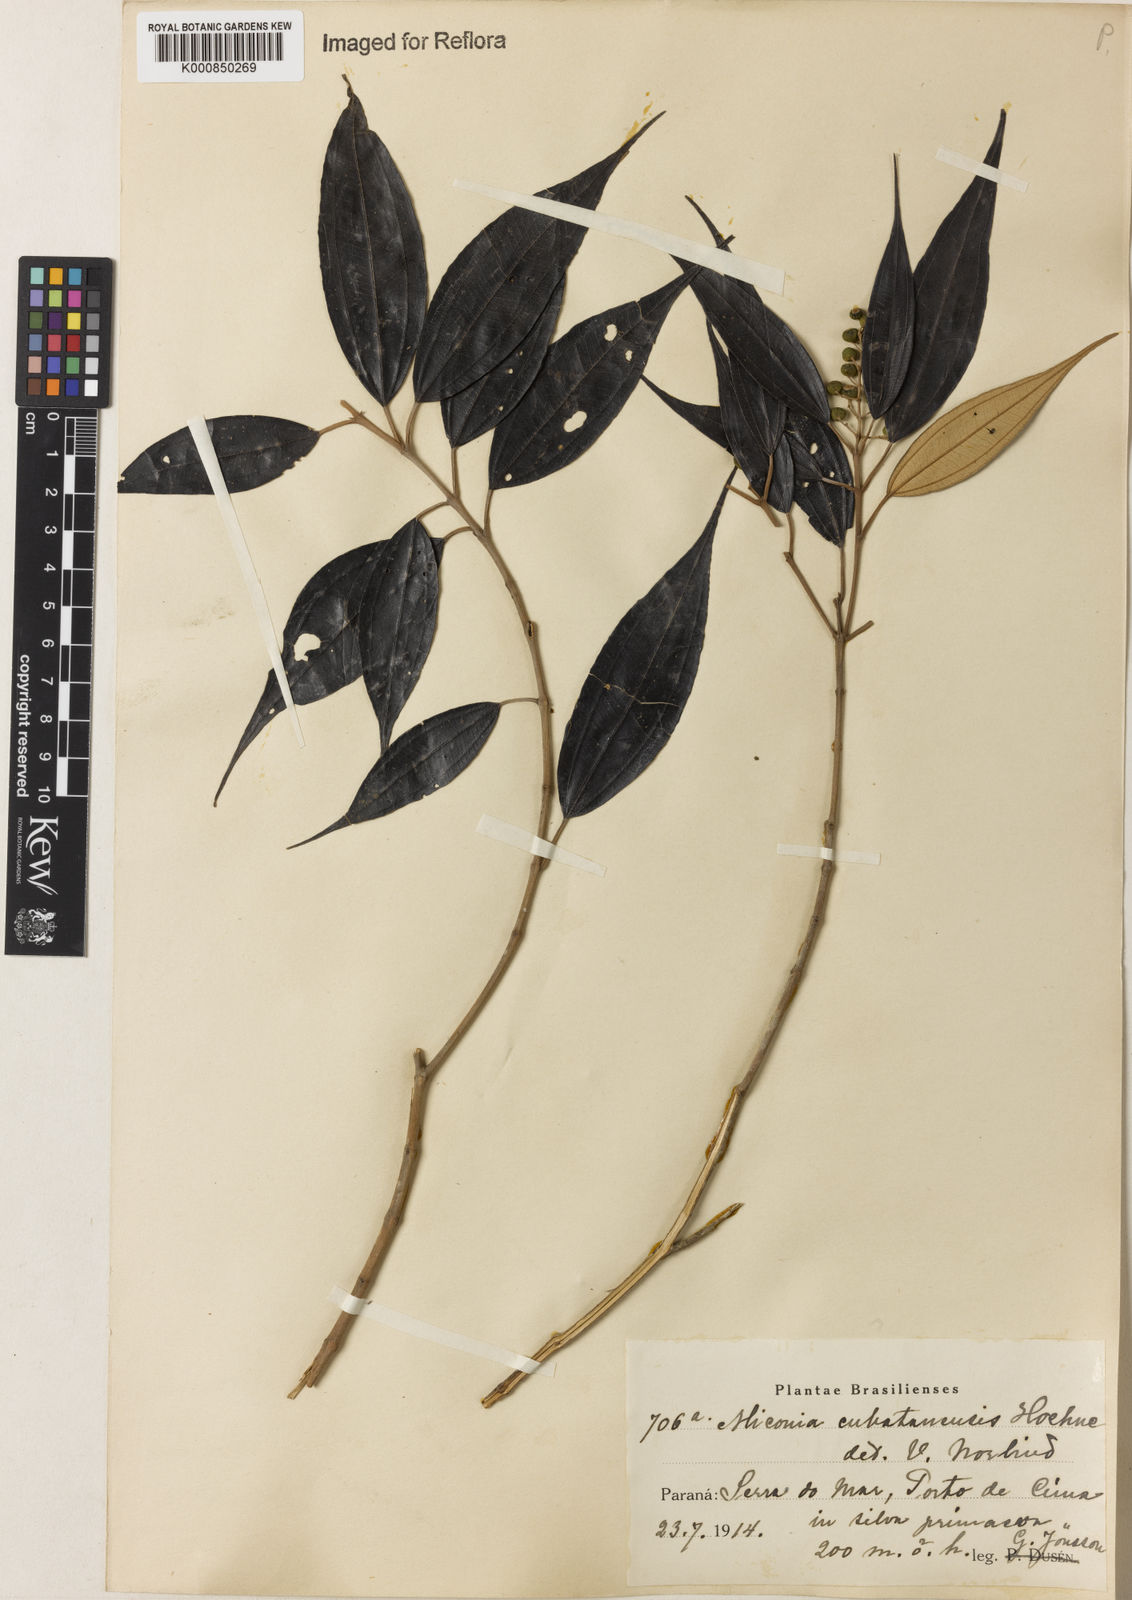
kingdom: Plantae
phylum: Tracheophyta
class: Magnoliopsida
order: Myrtales
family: Melastomataceae
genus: Miconia
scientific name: Miconia cubatanensis
